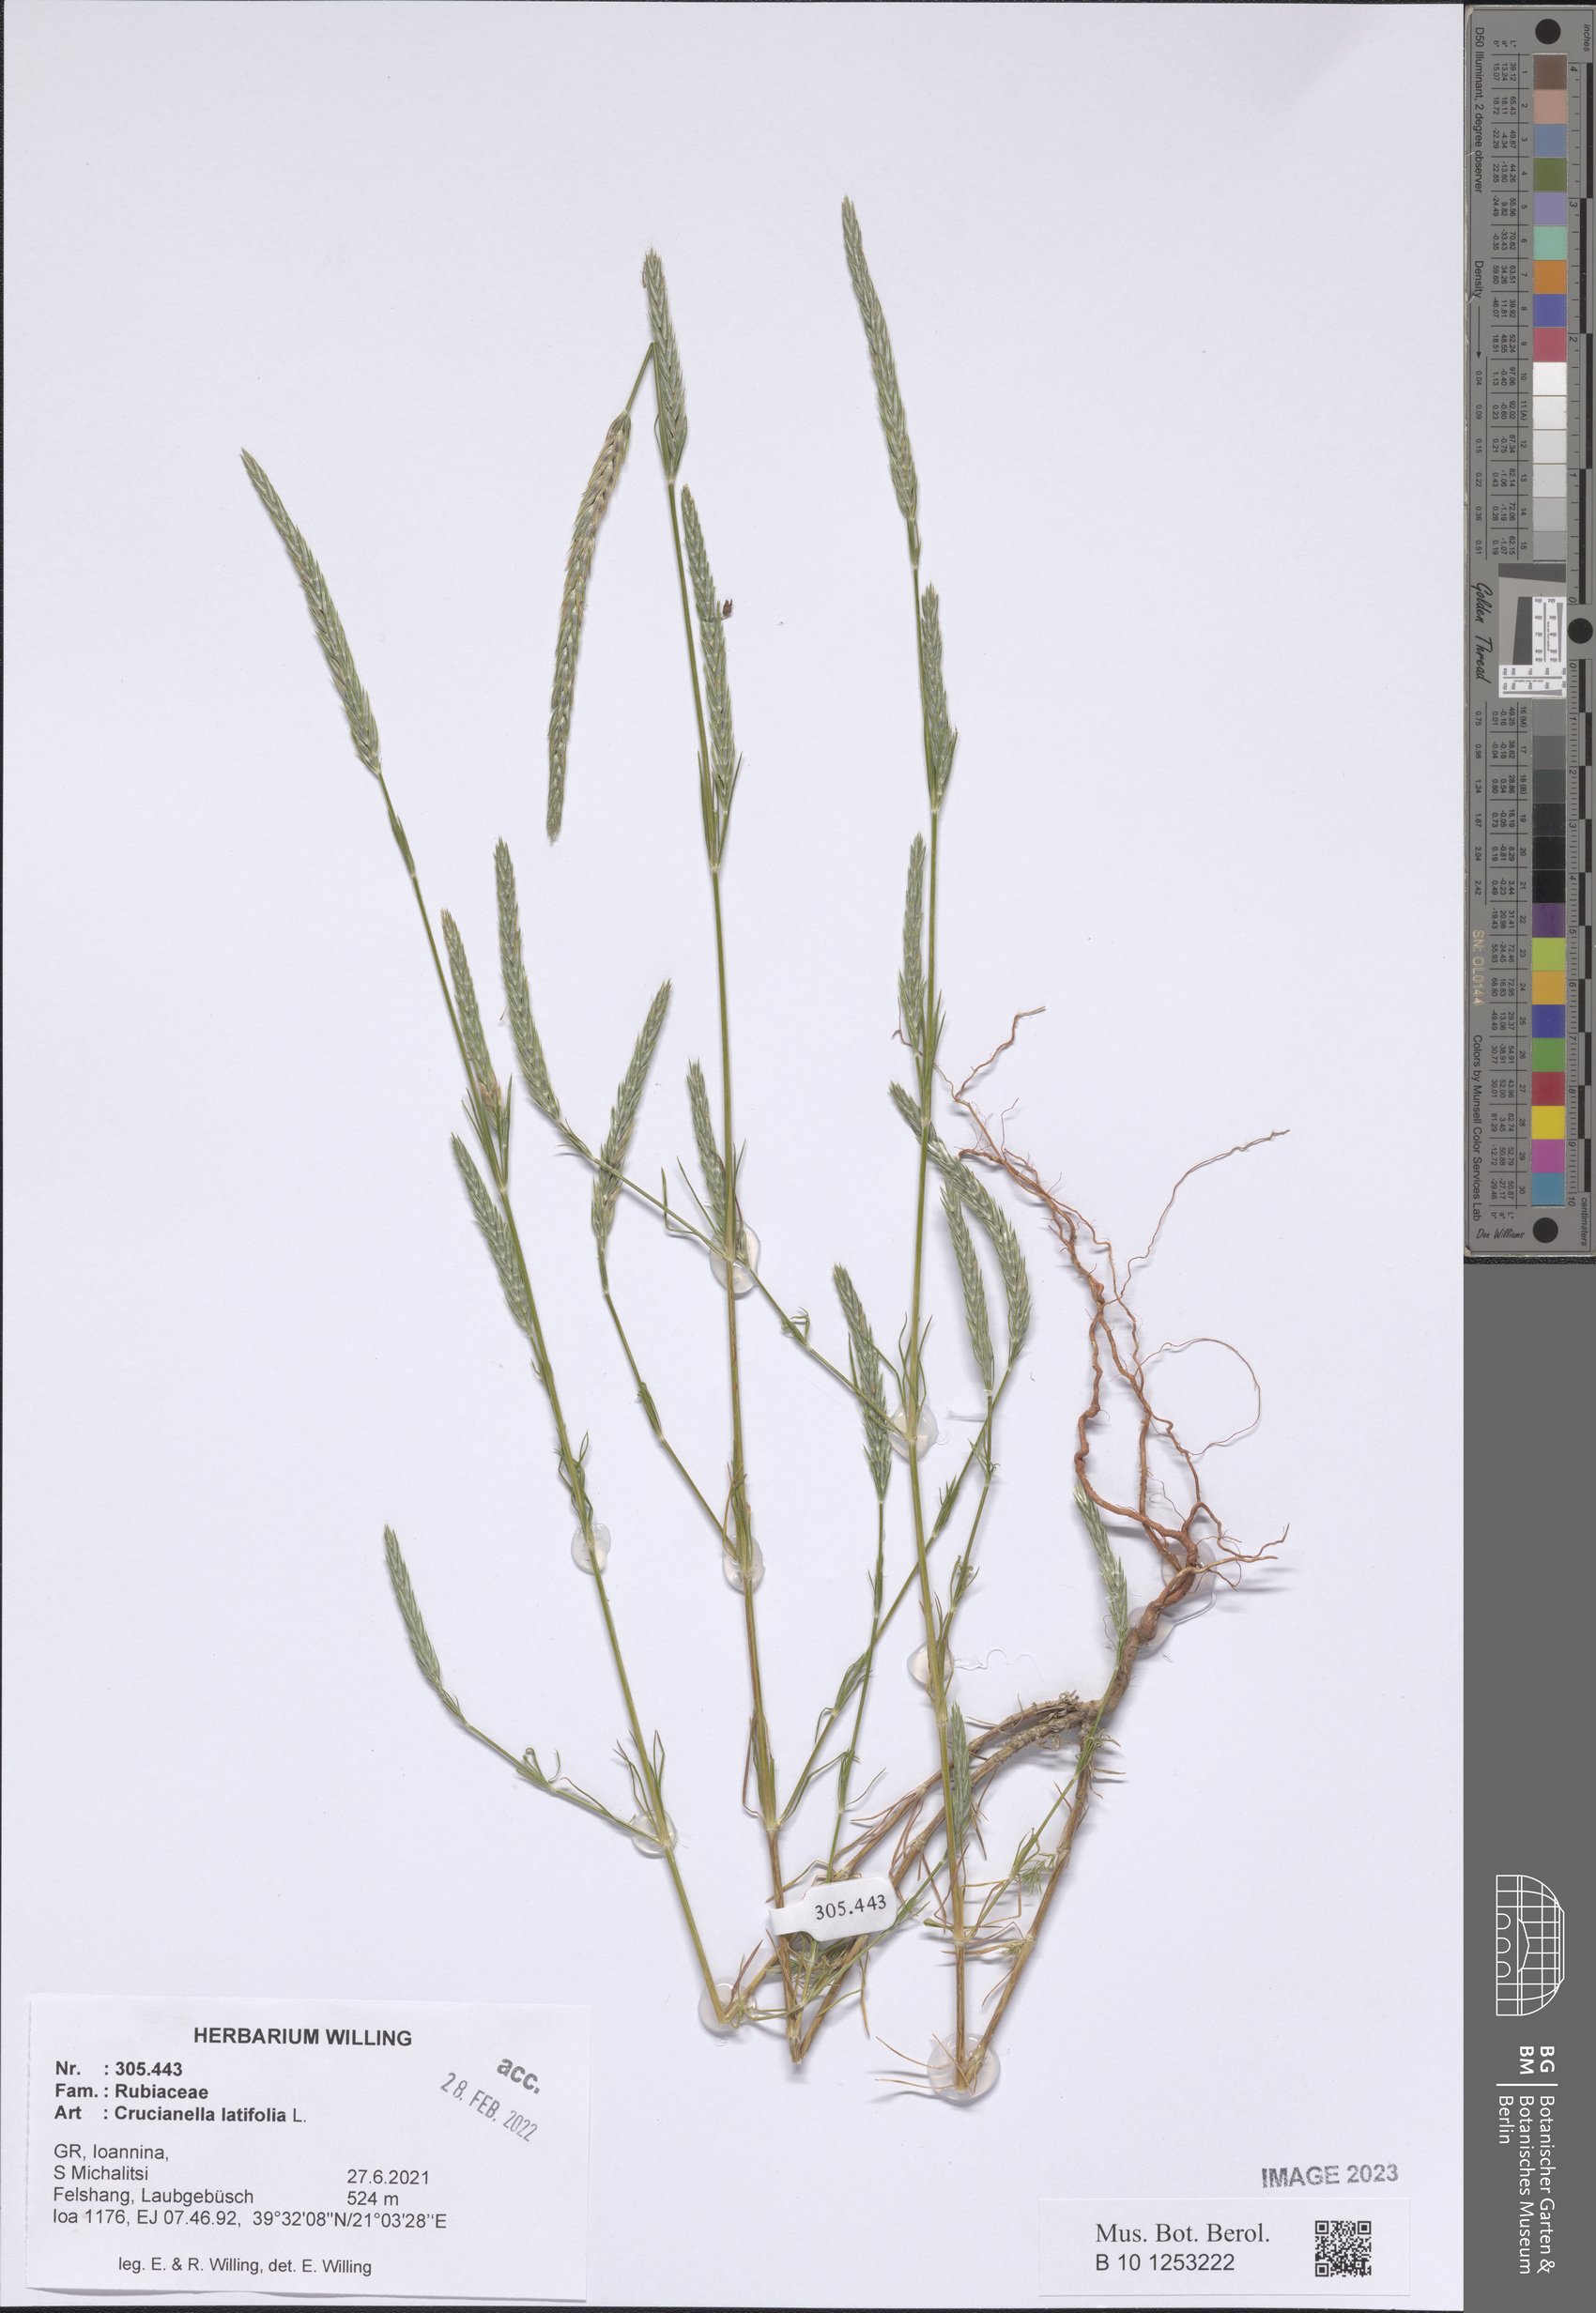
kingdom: Plantae
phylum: Tracheophyta
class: Magnoliopsida
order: Gentianales
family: Rubiaceae
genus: Crucianella
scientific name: Crucianella latifolia
